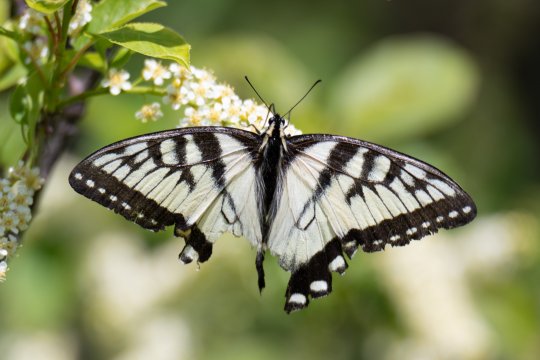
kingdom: Animalia
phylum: Arthropoda
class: Insecta
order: Lepidoptera
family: Papilionidae
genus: Pterourus
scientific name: Pterourus
